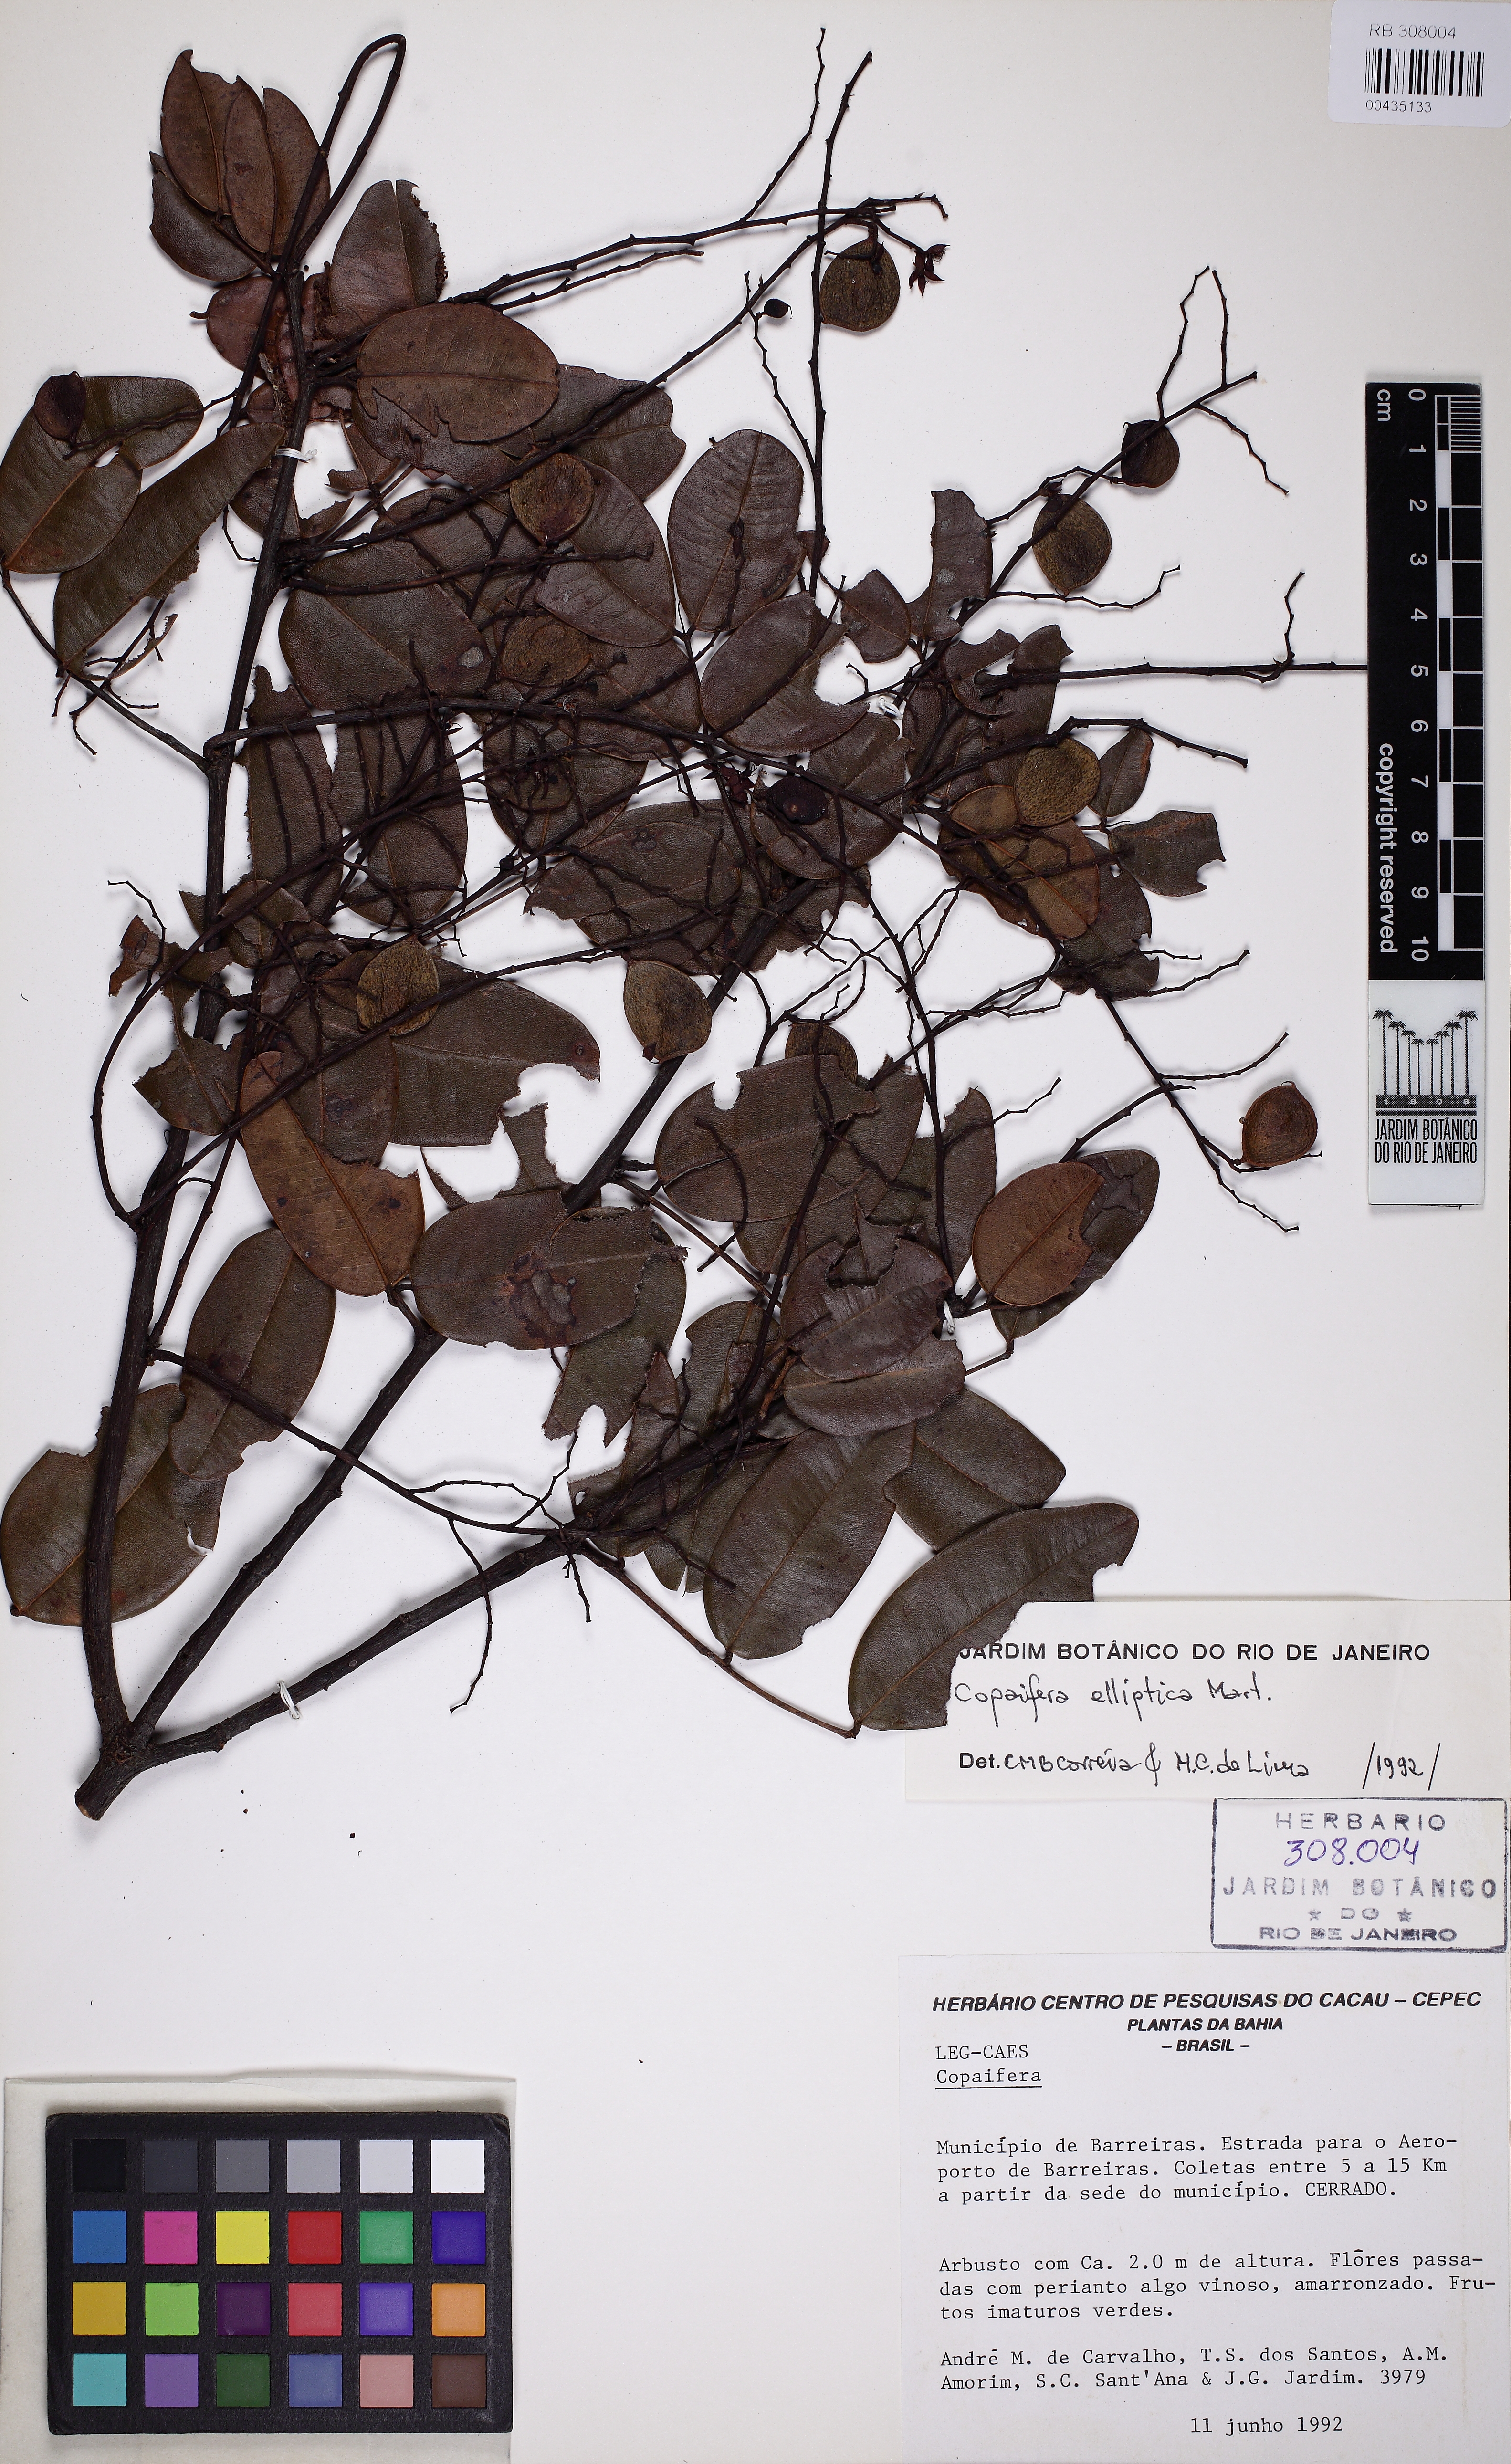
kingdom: Plantae
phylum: Tracheophyta
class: Magnoliopsida
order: Fabales
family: Fabaceae
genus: Copaifera
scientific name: Copaifera elliptica
